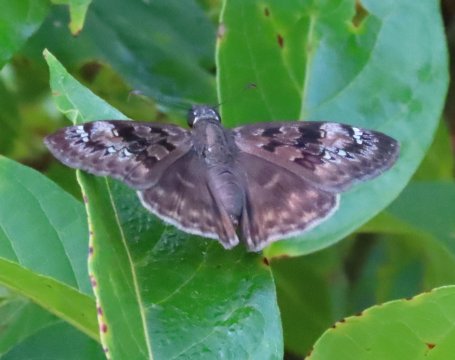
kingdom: Animalia
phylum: Arthropoda
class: Insecta
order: Lepidoptera
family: Hesperiidae
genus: Gesta
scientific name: Gesta
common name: Horace's Duskywing
